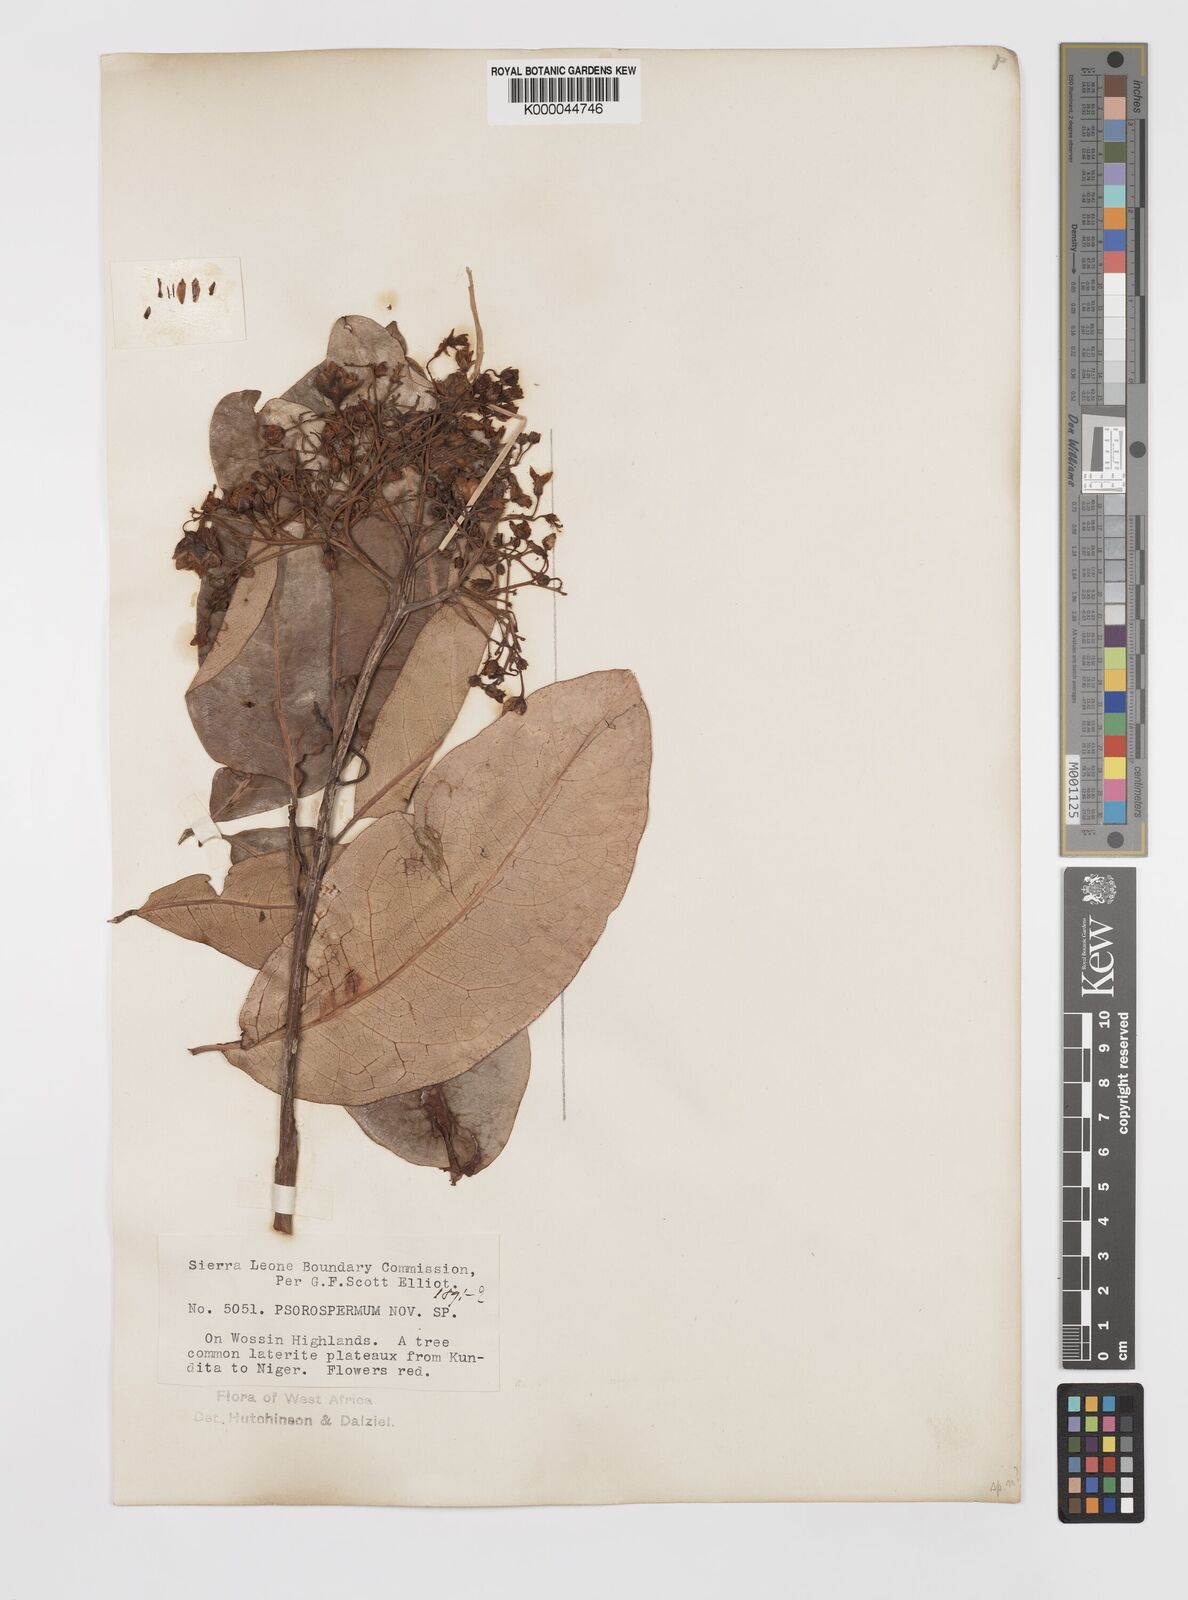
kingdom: Plantae
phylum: Tracheophyta
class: Magnoliopsida
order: Malpighiales
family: Hypericaceae
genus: Psorospermum
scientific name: Psorospermum alternifolium
